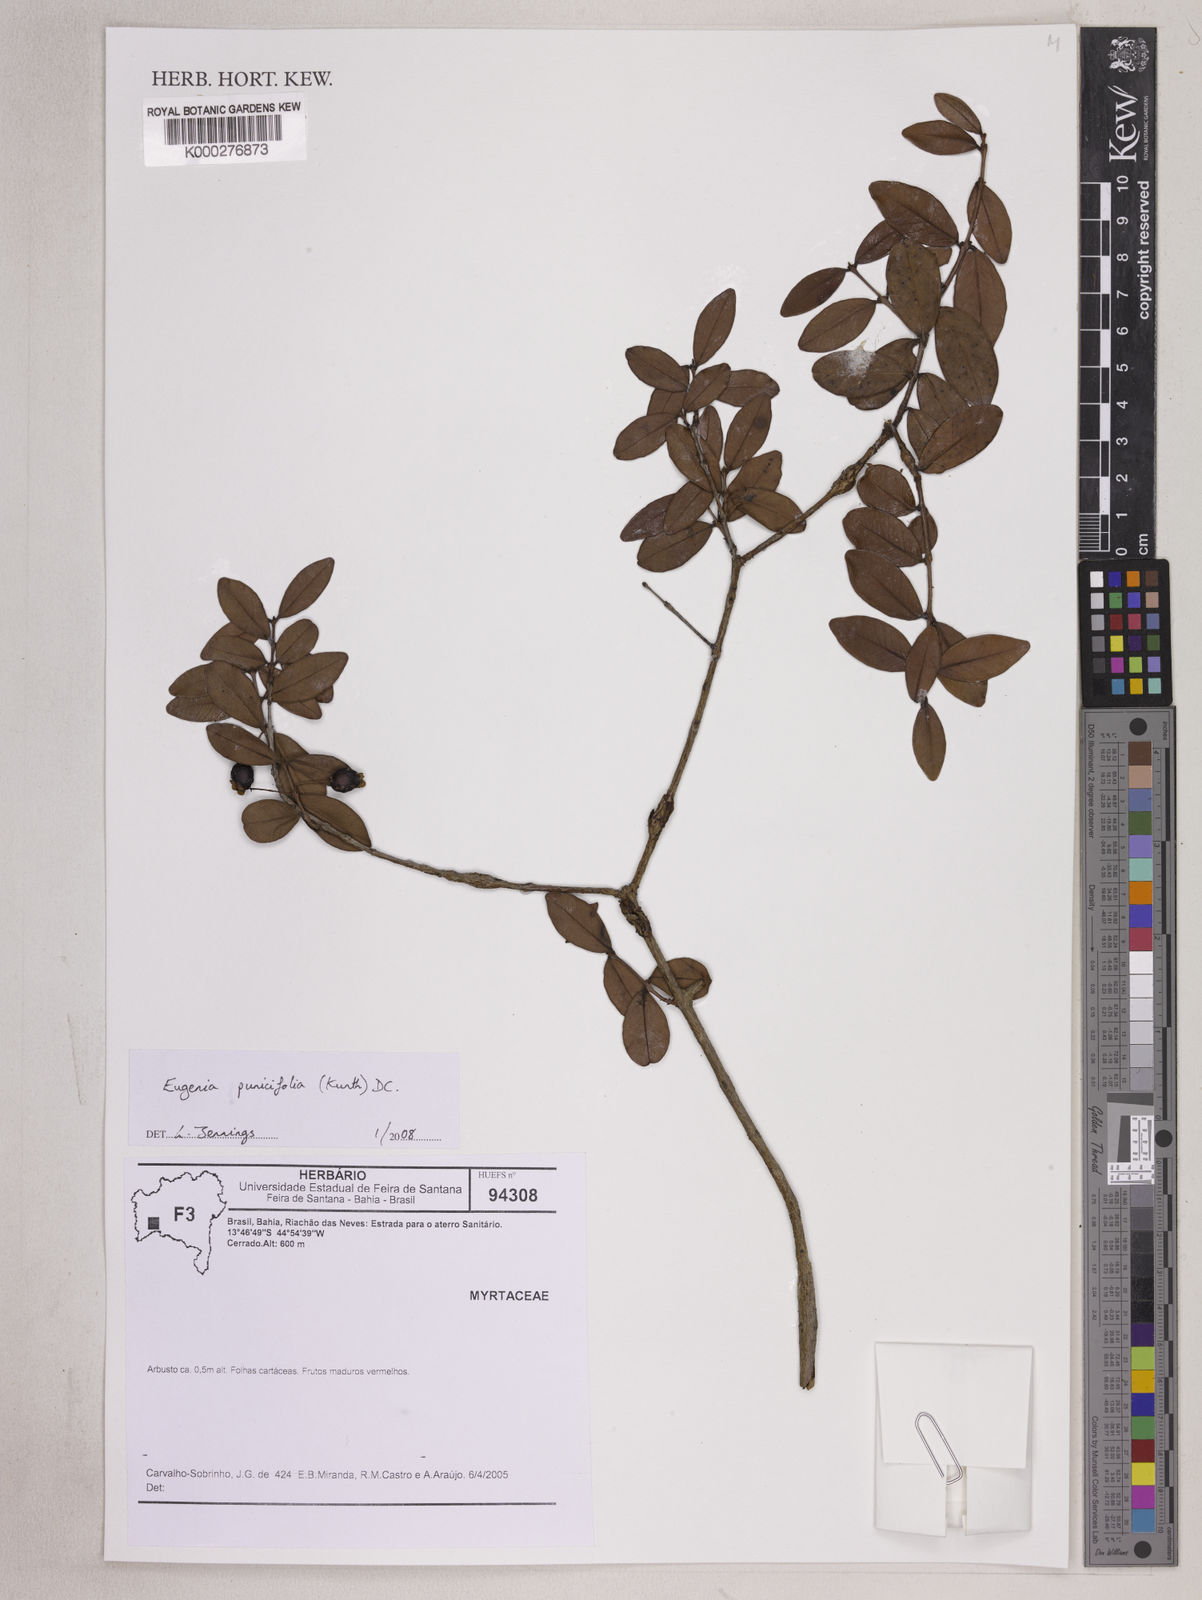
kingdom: Plantae
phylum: Tracheophyta
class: Magnoliopsida
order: Myrtales
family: Myrtaceae
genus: Eugenia
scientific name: Eugenia punicifolia
